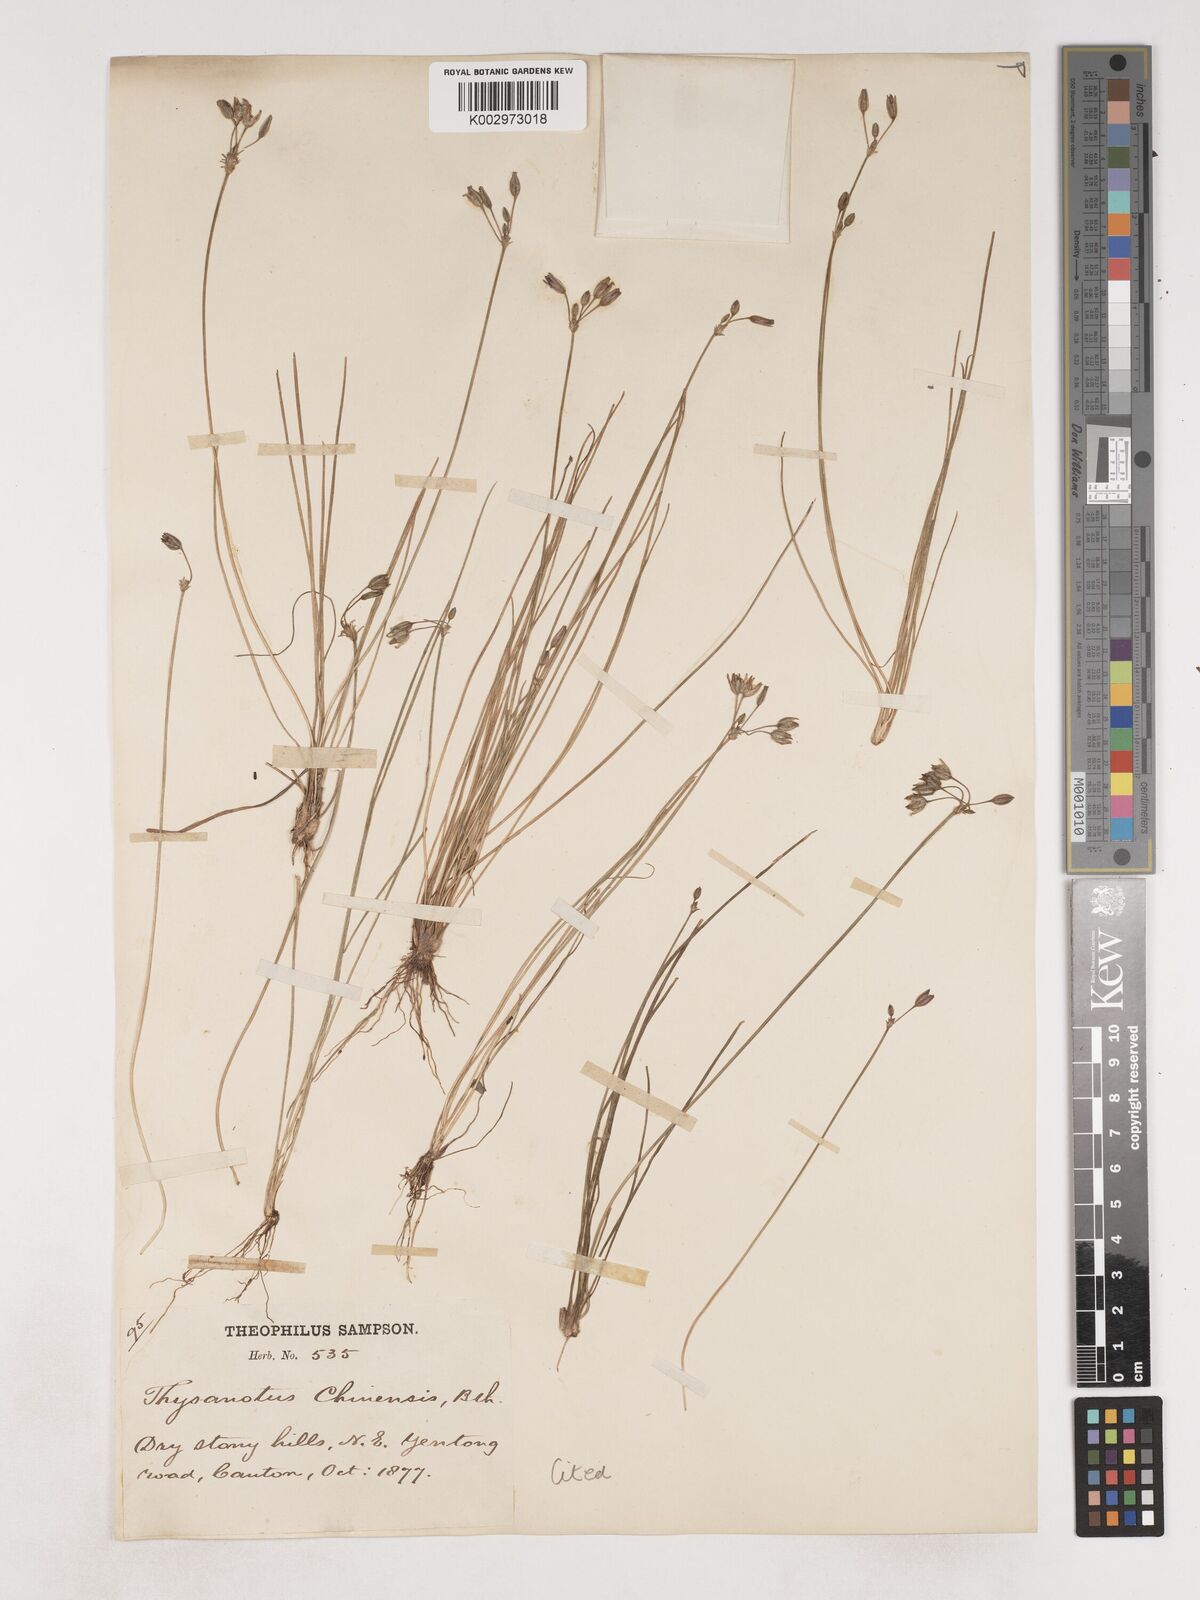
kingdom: Plantae
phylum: Tracheophyta
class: Liliopsida
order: Asparagales
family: Asparagaceae
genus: Thysanotus
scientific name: Thysanotus chinensis
